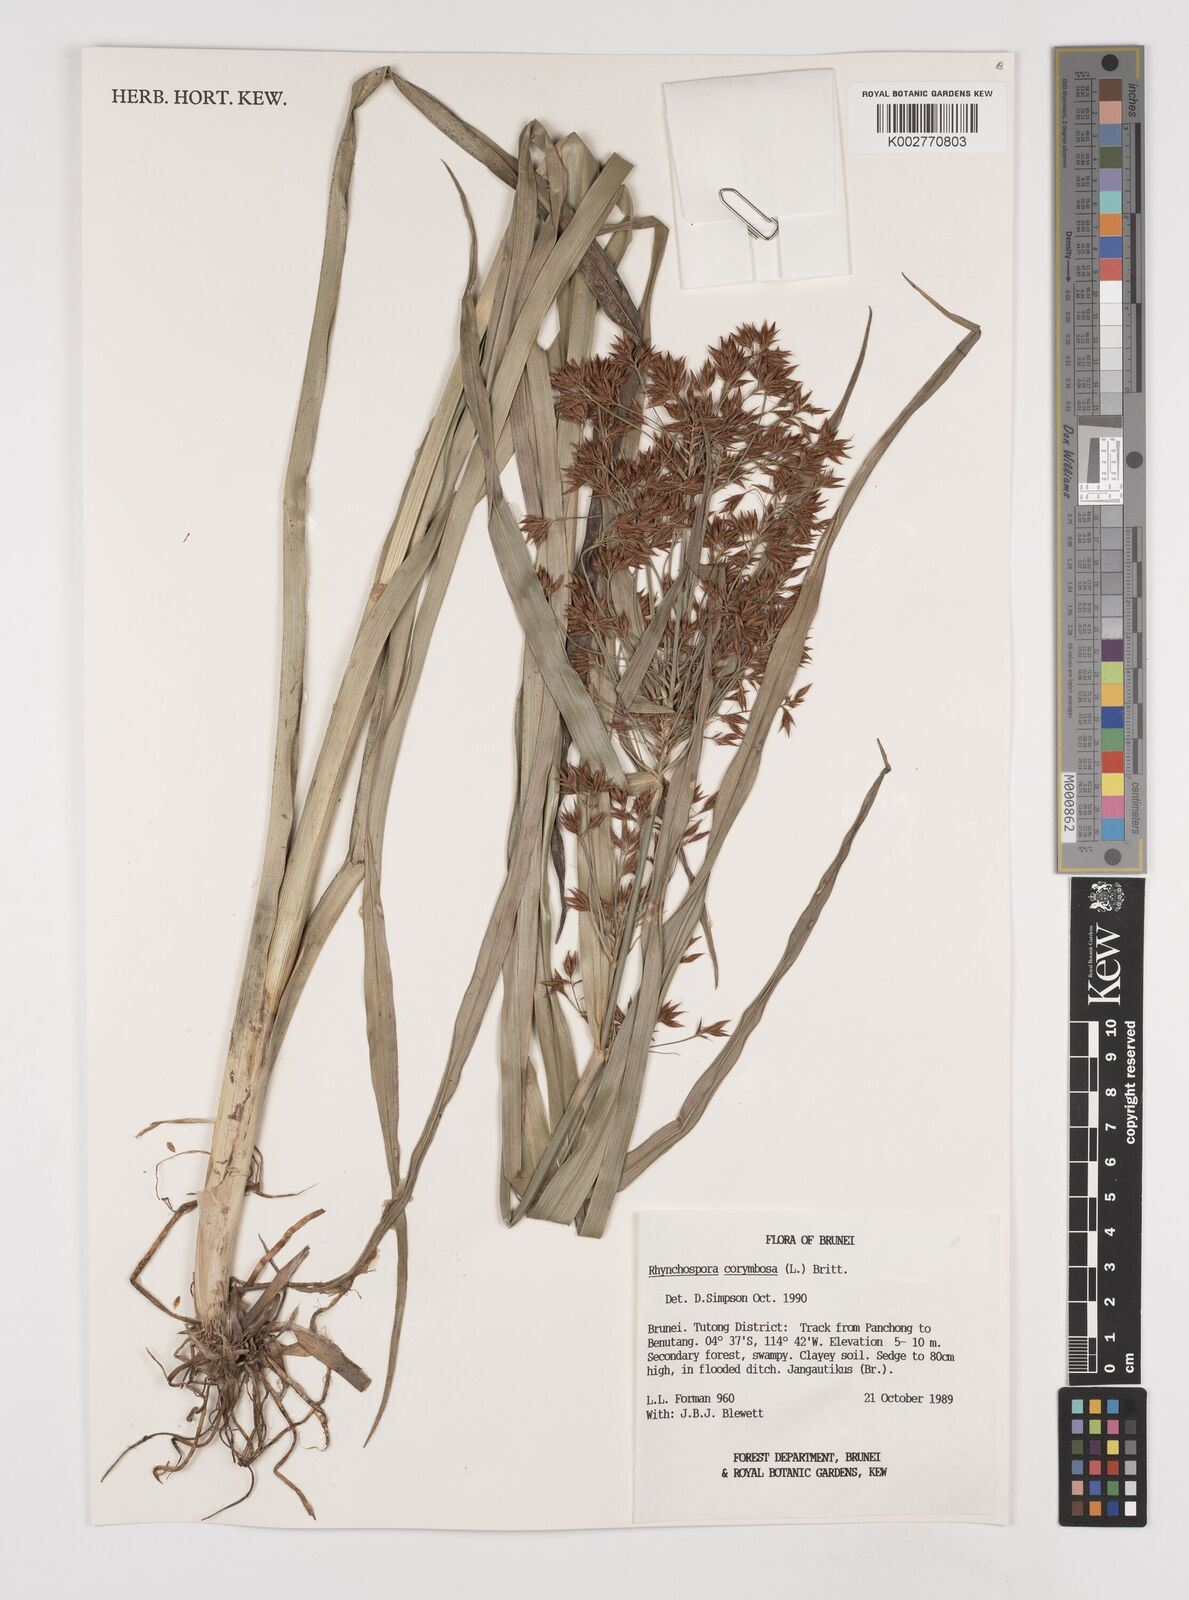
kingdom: Plantae
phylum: Tracheophyta
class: Liliopsida
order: Poales
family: Cyperaceae
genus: Rhynchospora
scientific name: Rhynchospora corymbosa
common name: Golden beak sedge
